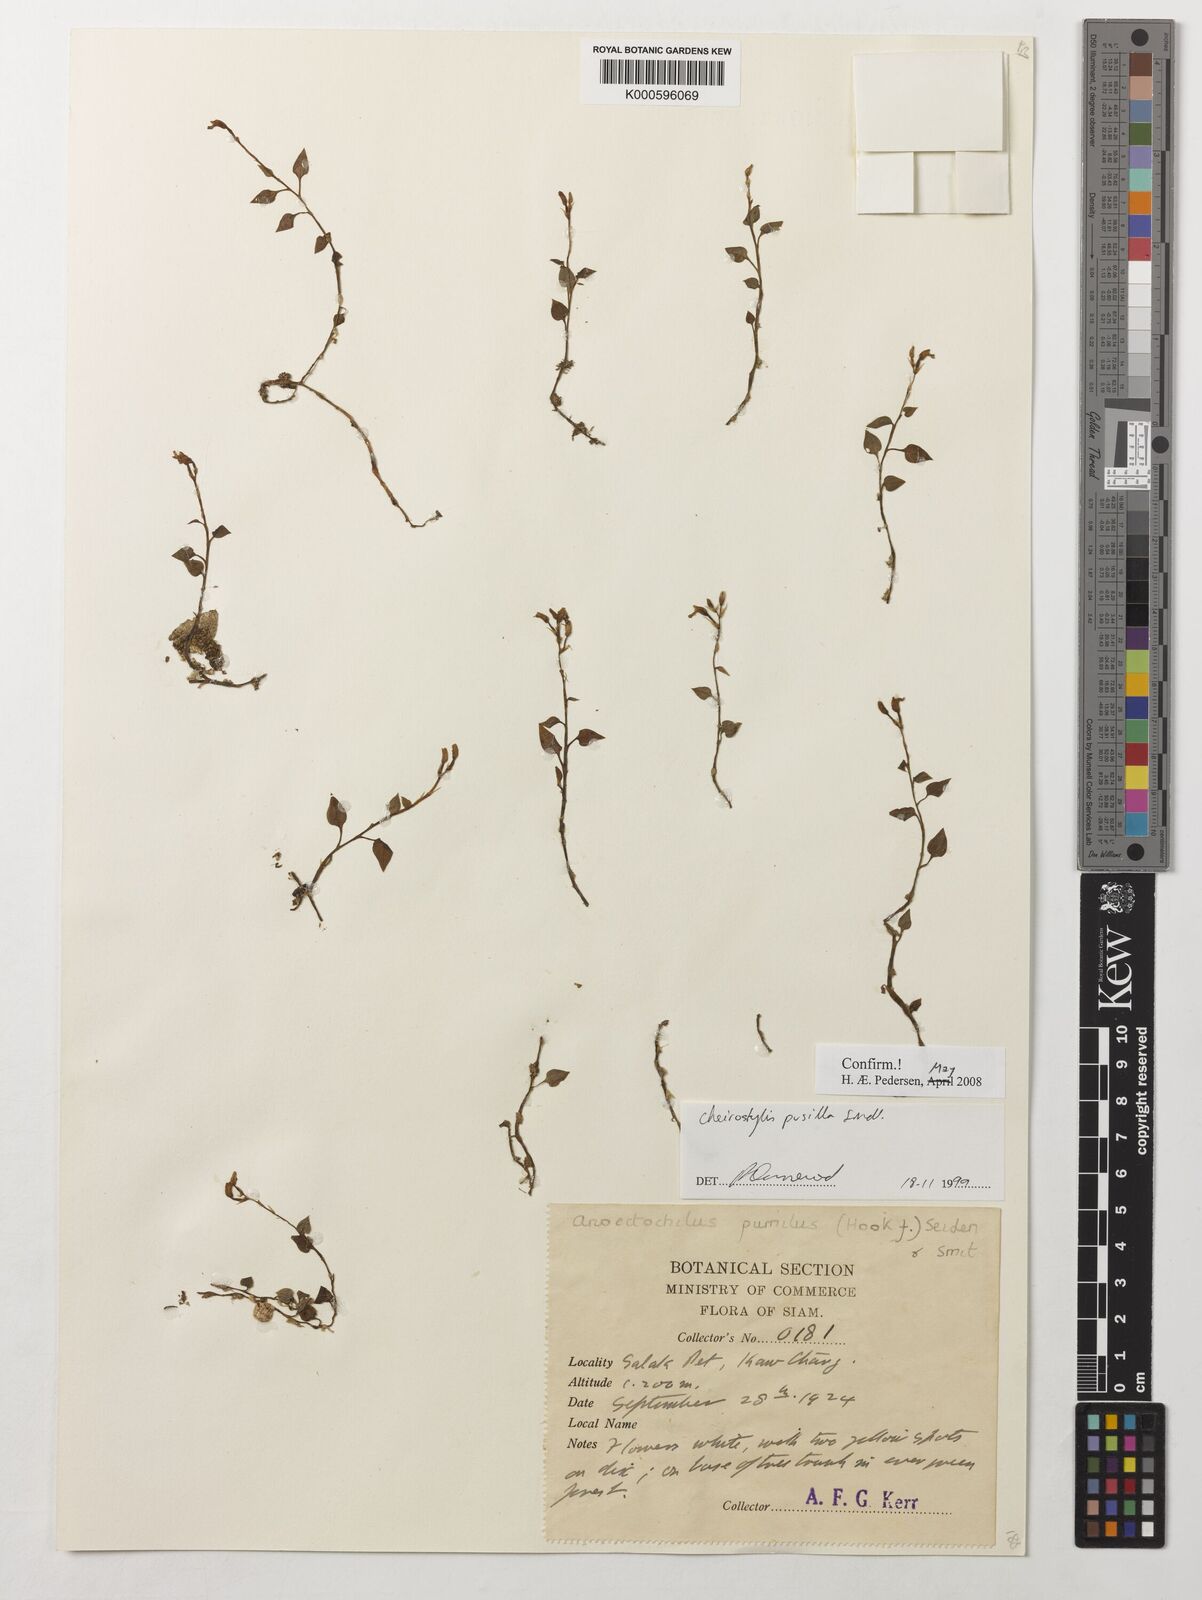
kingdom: Plantae
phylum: Tracheophyta
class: Liliopsida
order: Asparagales
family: Orchidaceae
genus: Cheirostylis
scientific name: Cheirostylis pusilla
